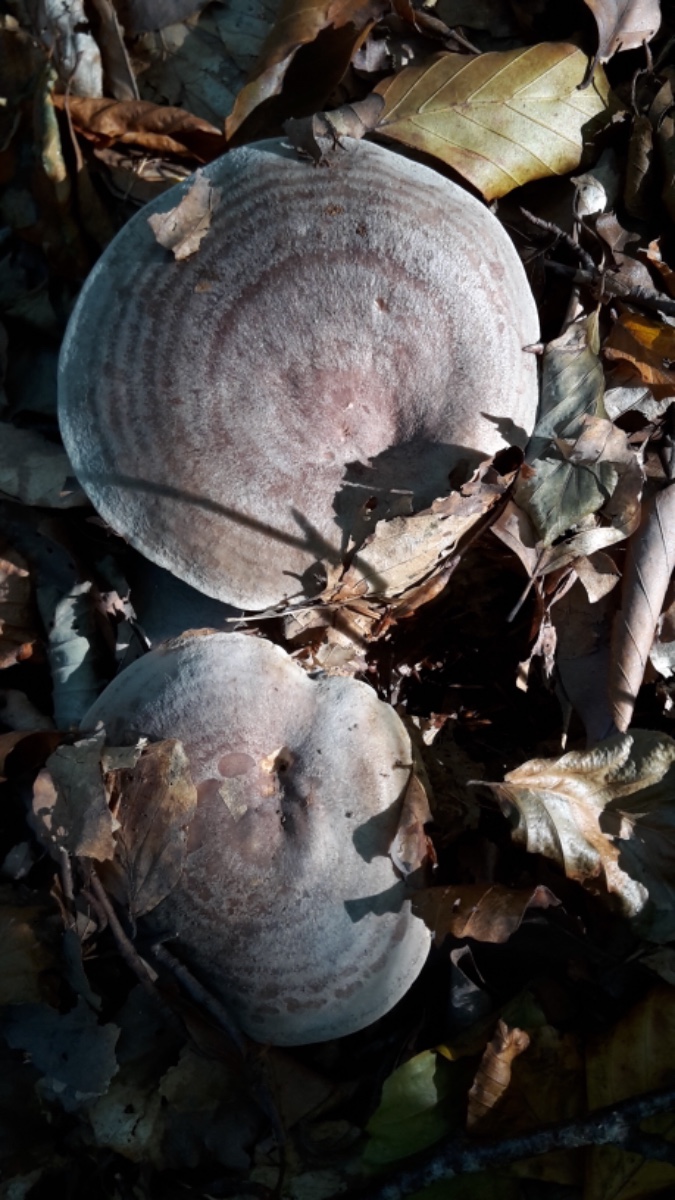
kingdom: Fungi
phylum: Basidiomycota
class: Agaricomycetes
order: Russulales
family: Russulaceae
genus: Lactarius
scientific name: Lactarius blennius
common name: dråbeplettet mælkehat
